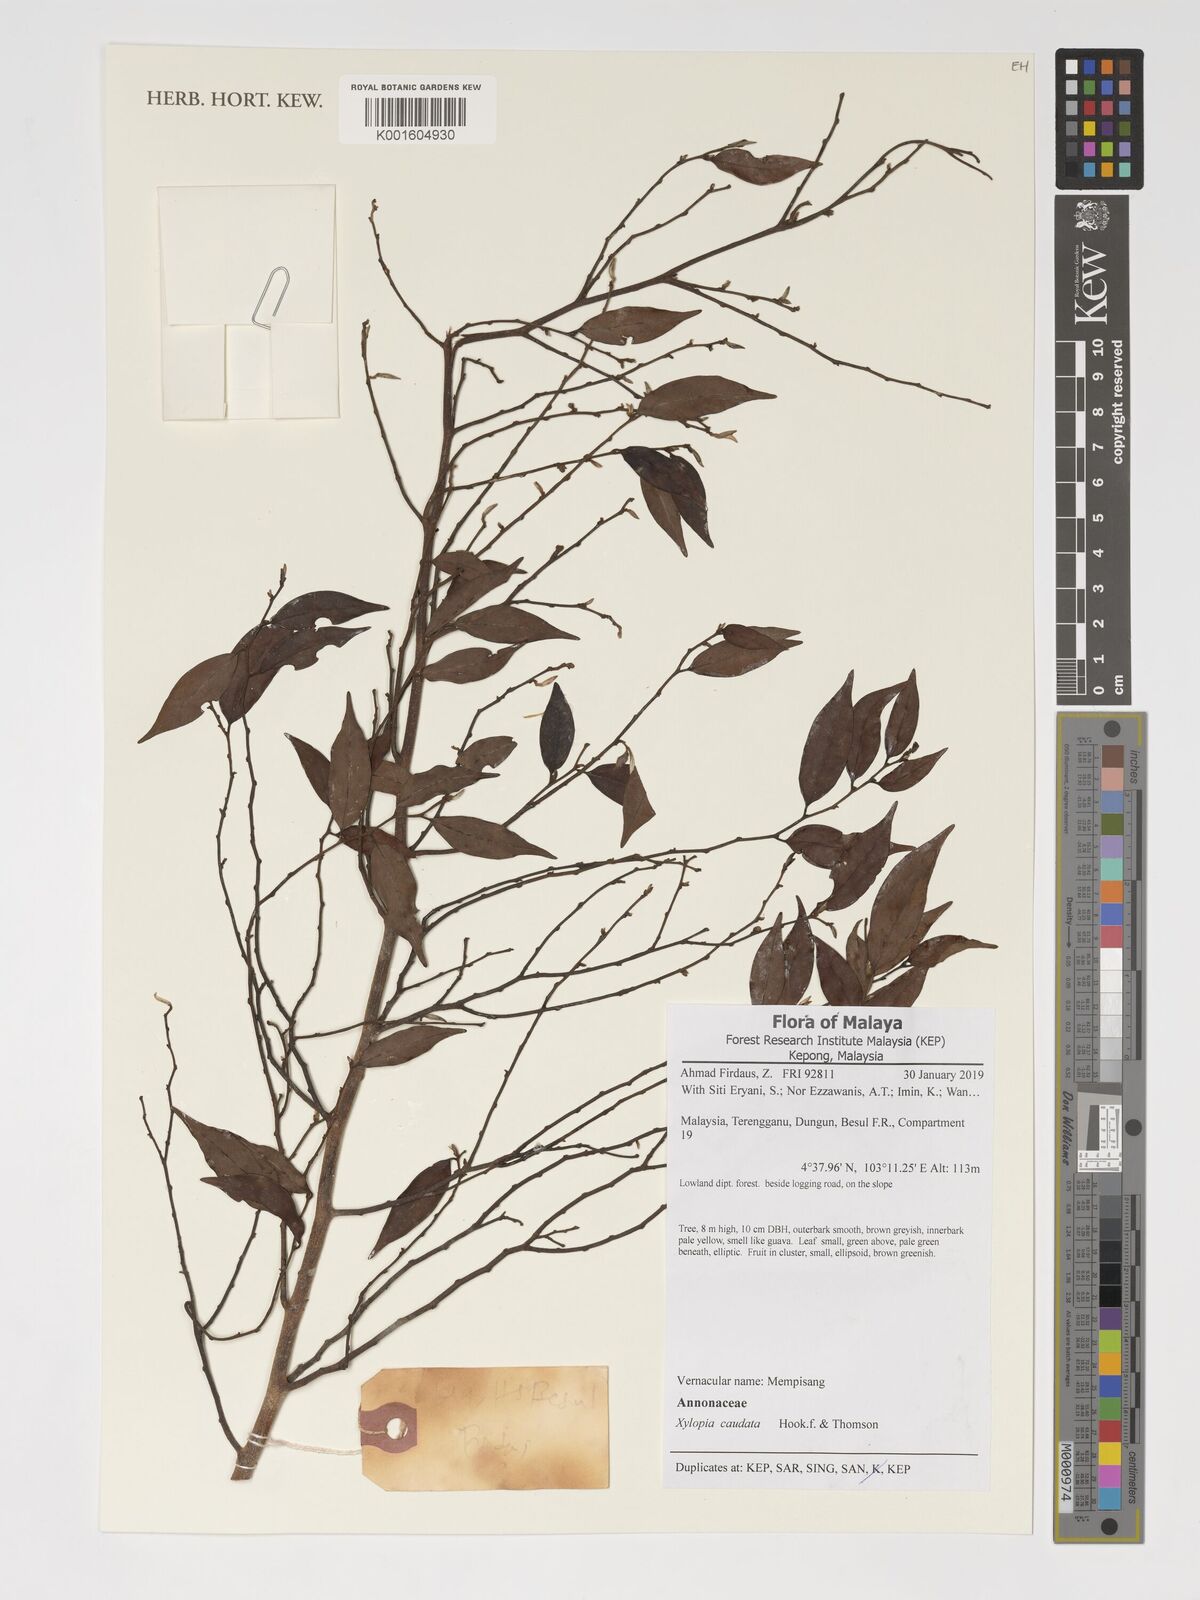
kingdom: Plantae
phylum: Tracheophyta
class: Magnoliopsida
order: Magnoliales
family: Annonaceae
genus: Xylopia
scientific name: Xylopia caudata
